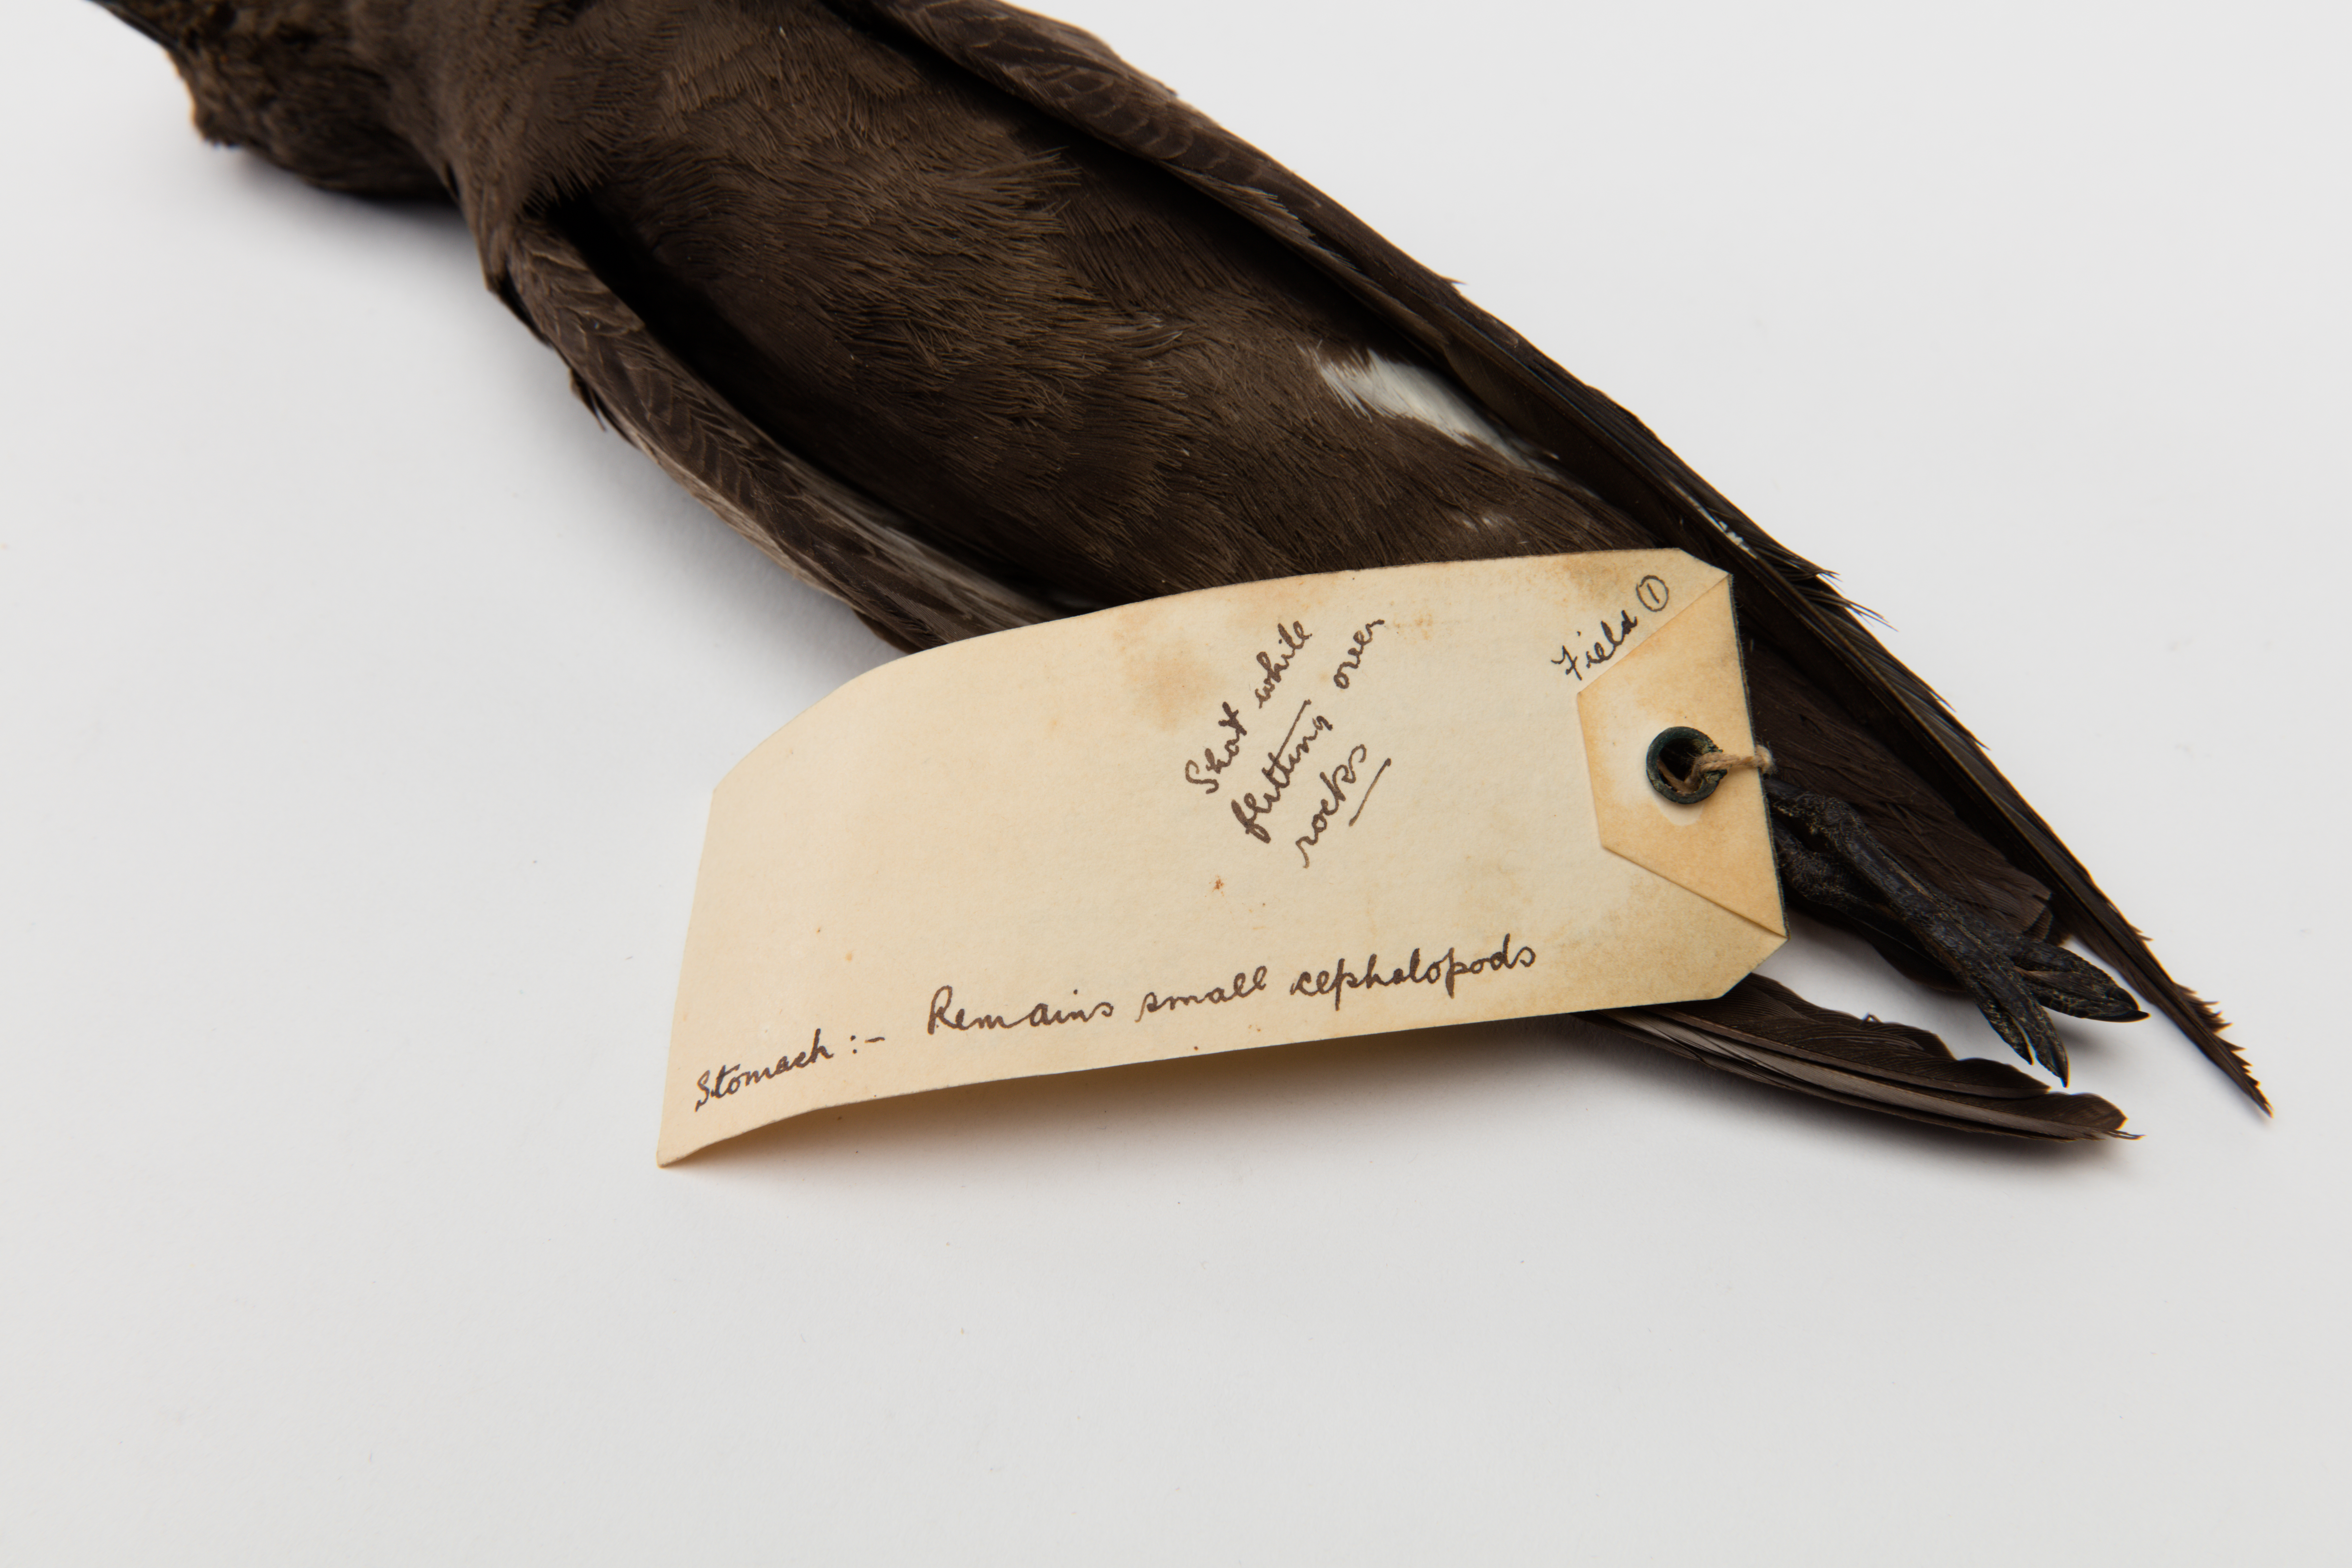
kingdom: Animalia
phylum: Chordata
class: Aves
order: Procellariiformes
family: Hydrobatidae
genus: Oceanites
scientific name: Oceanites oceanicus
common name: Wilson's storm petrel
